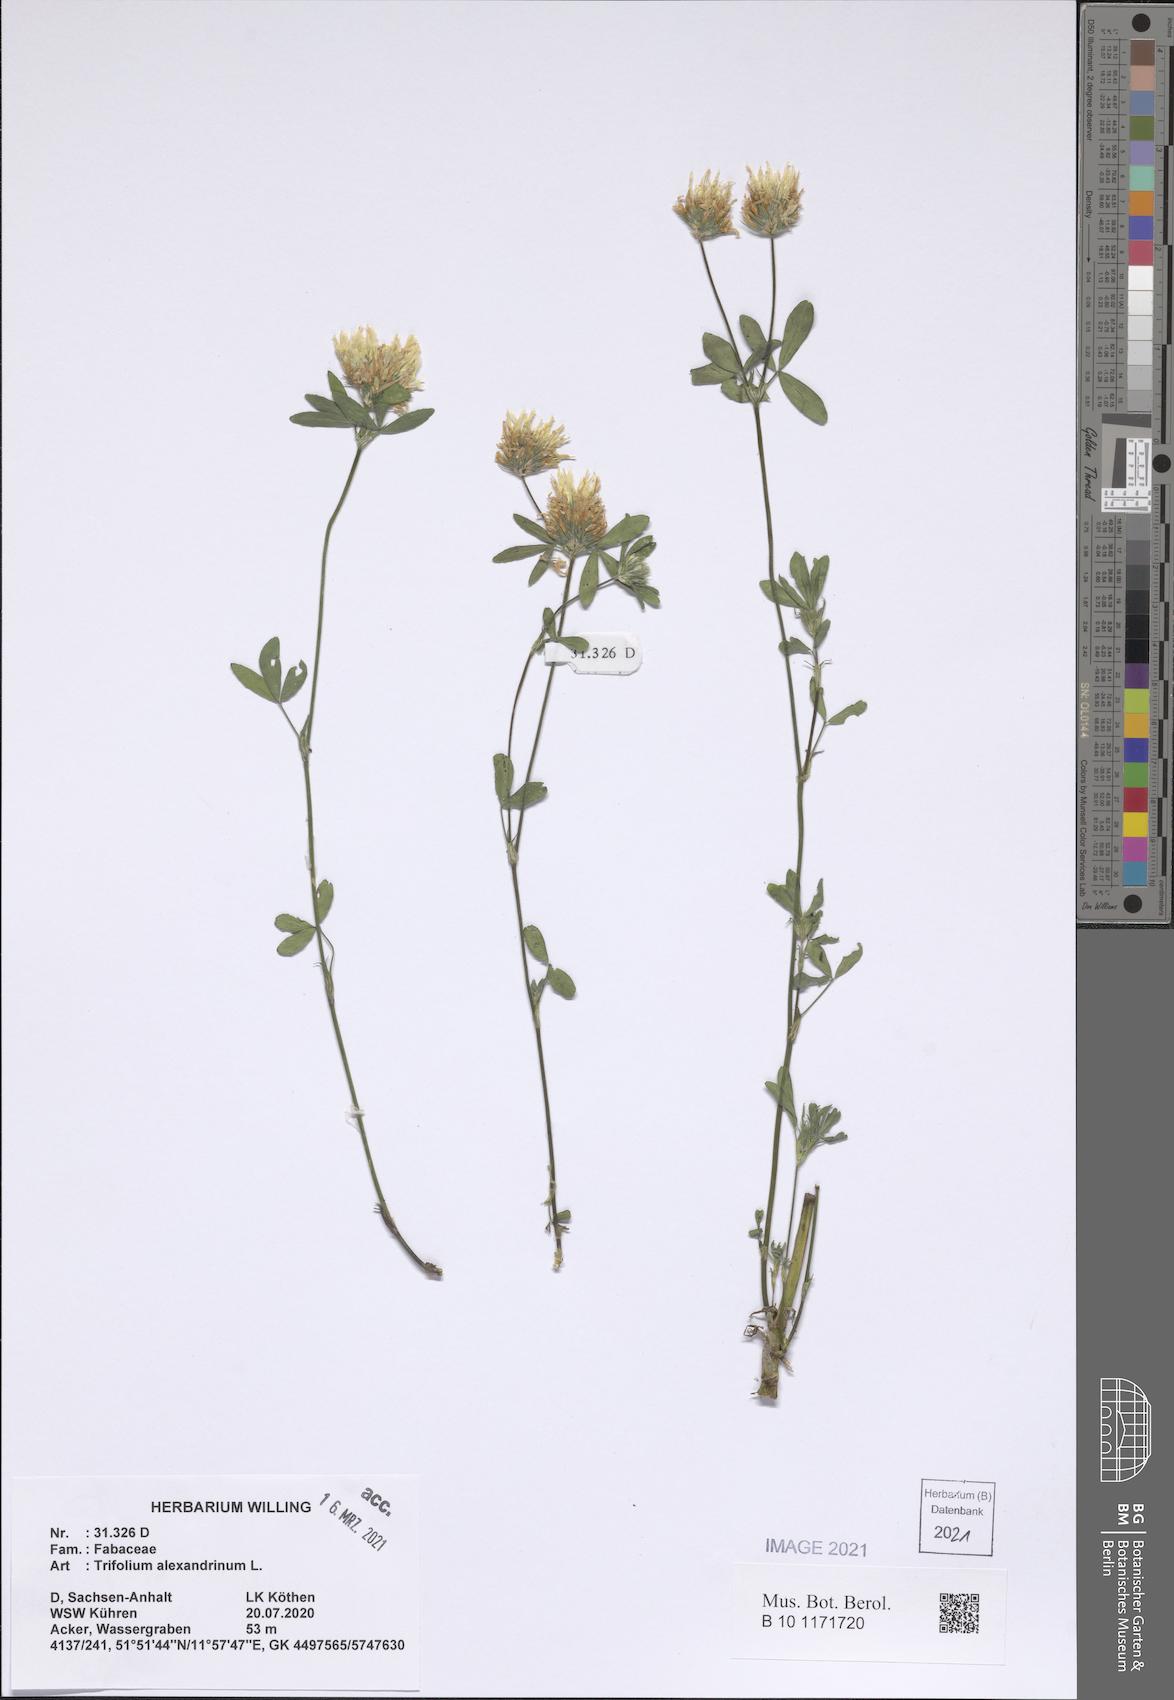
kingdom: Plantae
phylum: Tracheophyta
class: Magnoliopsida
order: Fabales
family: Fabaceae
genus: Trifolium
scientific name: Trifolium alexandrinum
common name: Egyptian clover
